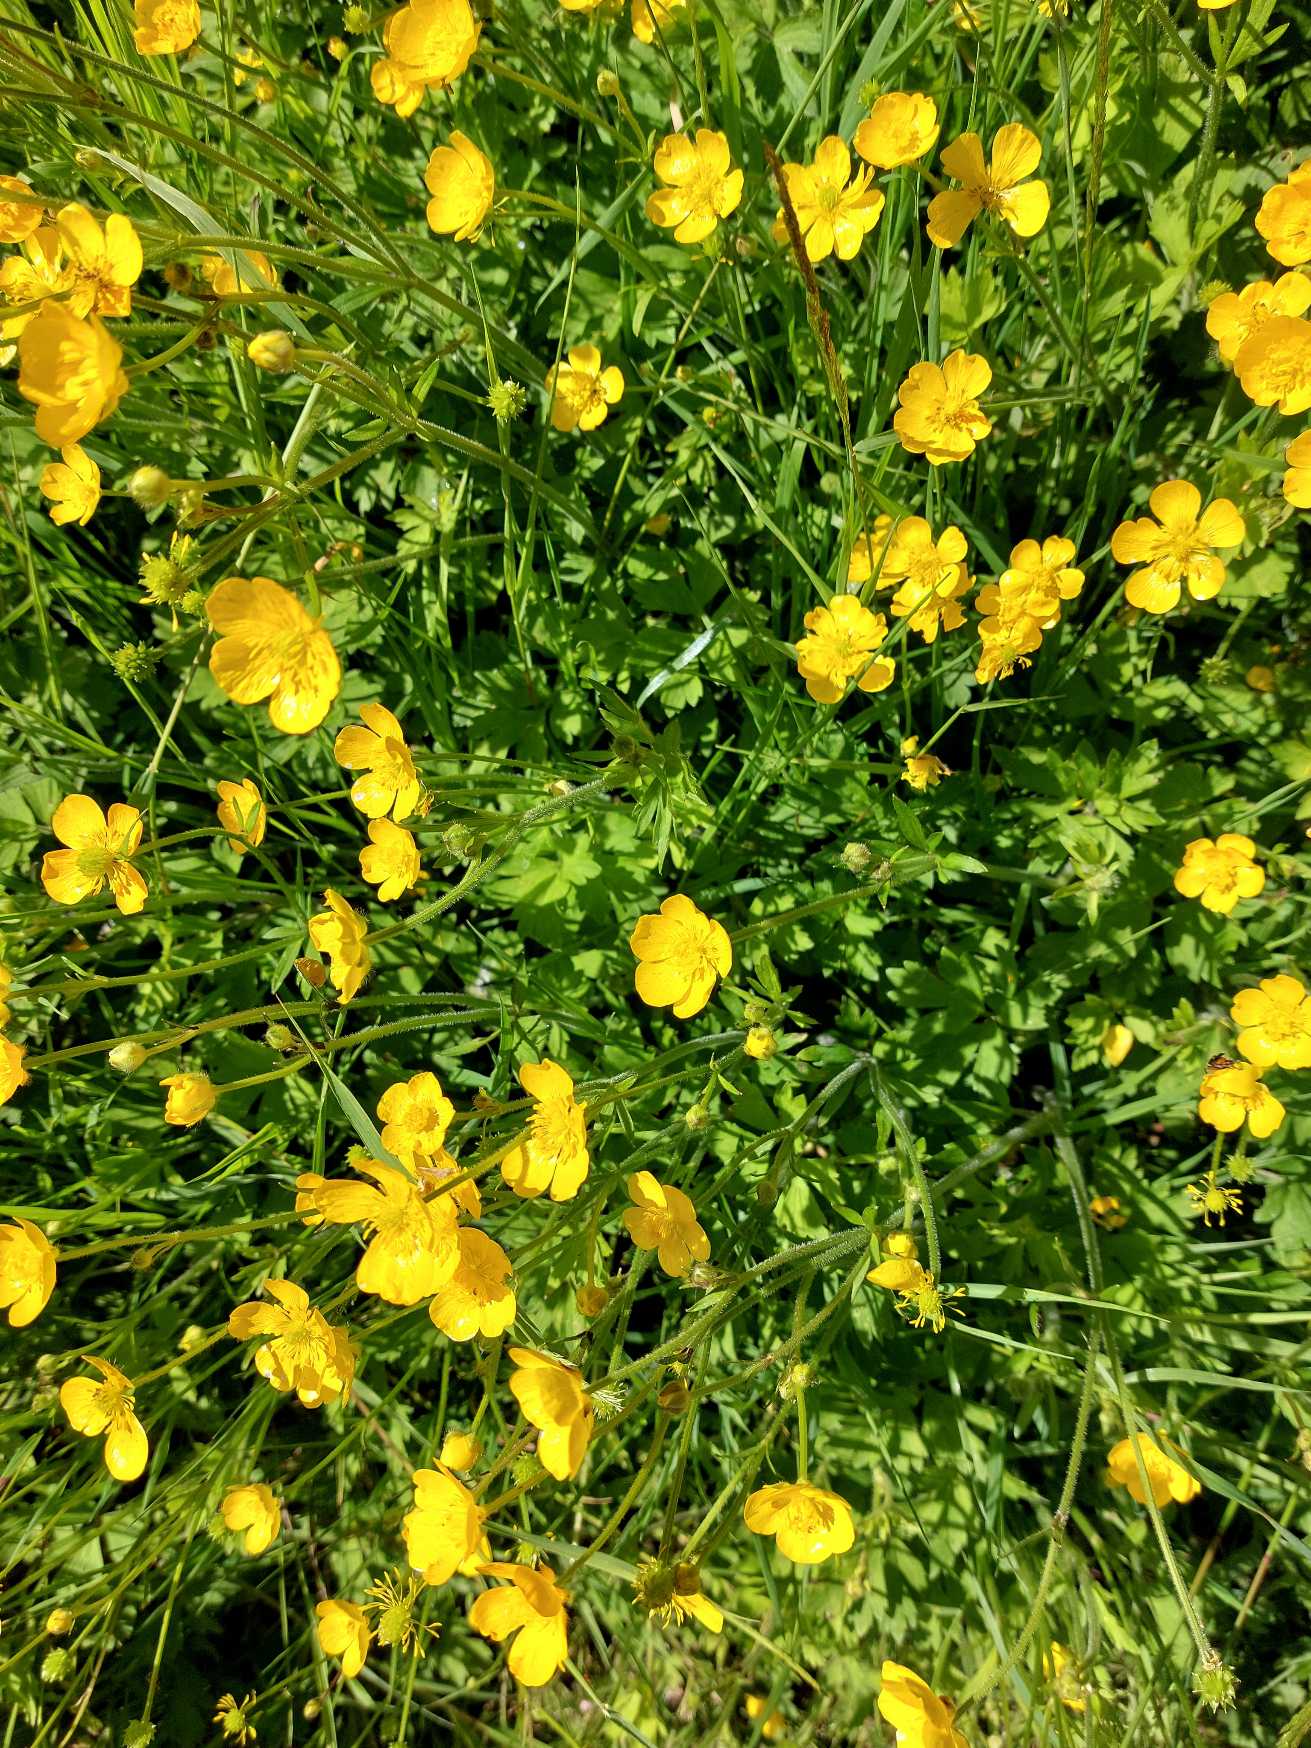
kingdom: Plantae
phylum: Tracheophyta
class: Magnoliopsida
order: Ranunculales
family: Ranunculaceae
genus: Ranunculus
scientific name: Ranunculus repens
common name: Lav ranunkel
